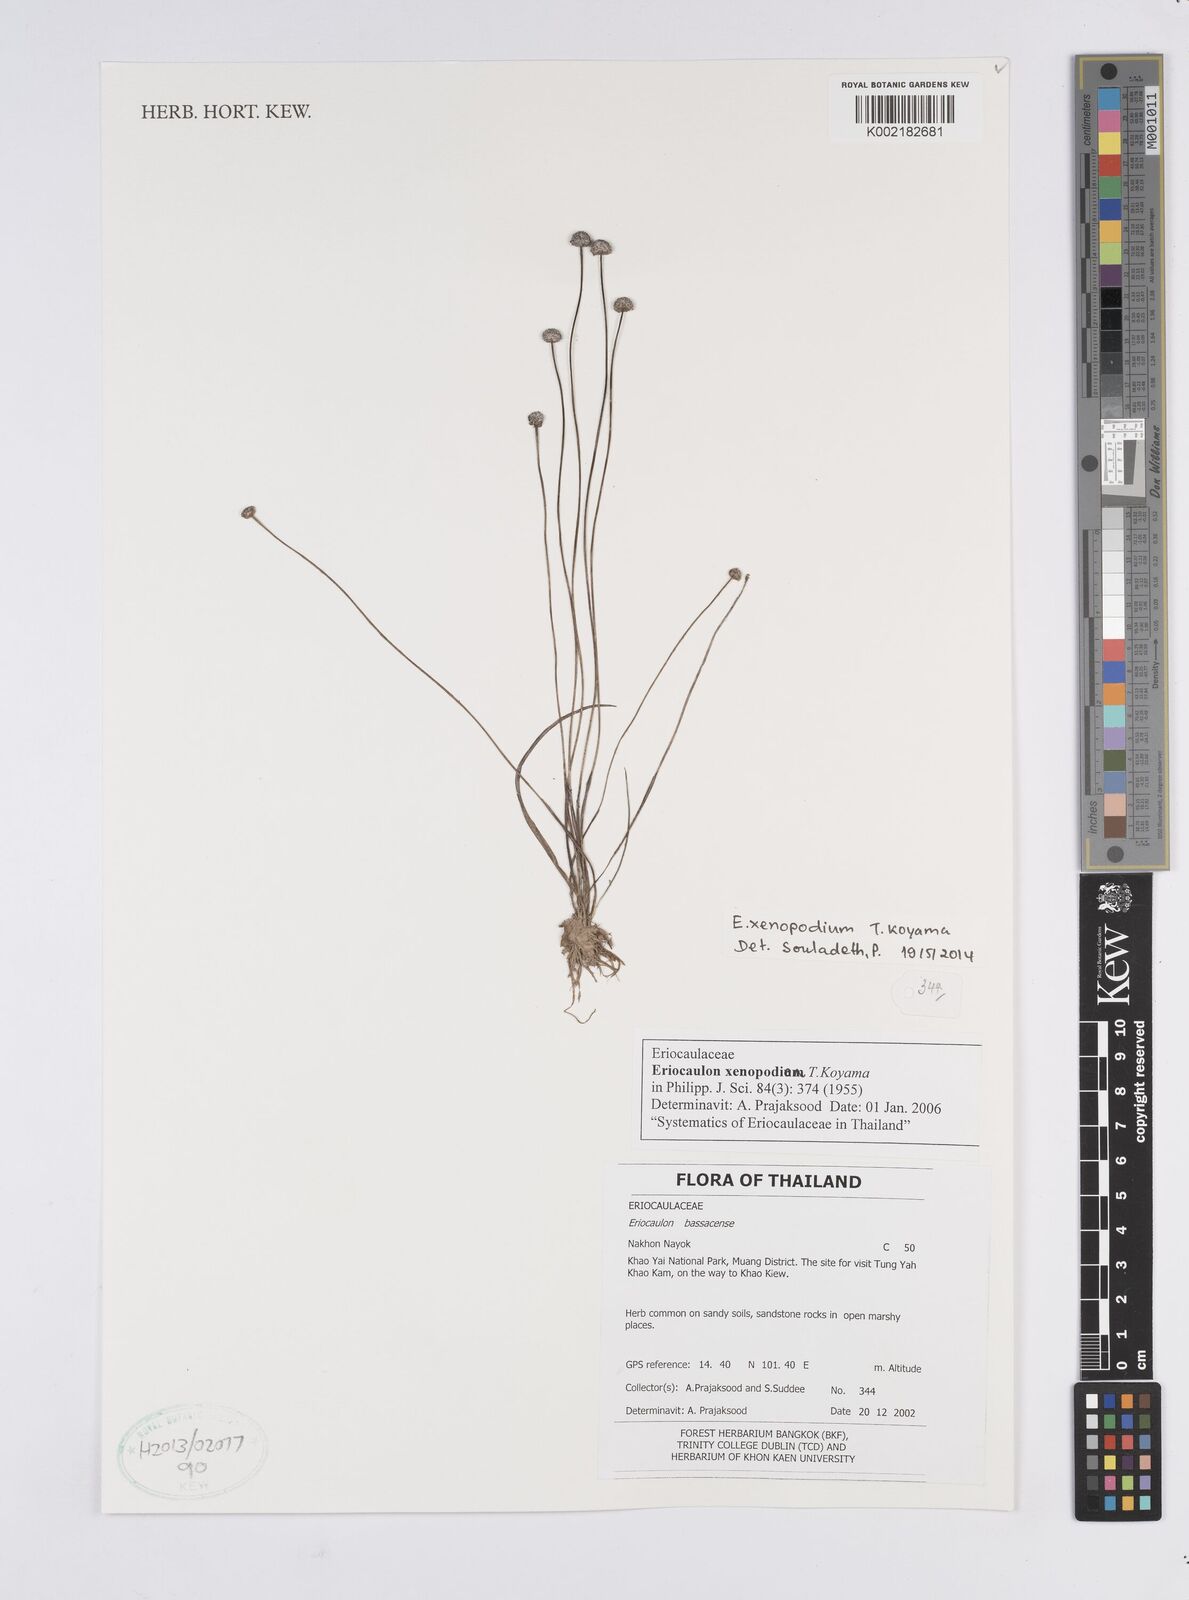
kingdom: Plantae
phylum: Tracheophyta
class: Liliopsida
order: Poales
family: Eriocaulaceae
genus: Eriocaulon
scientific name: Eriocaulon xenopodion
